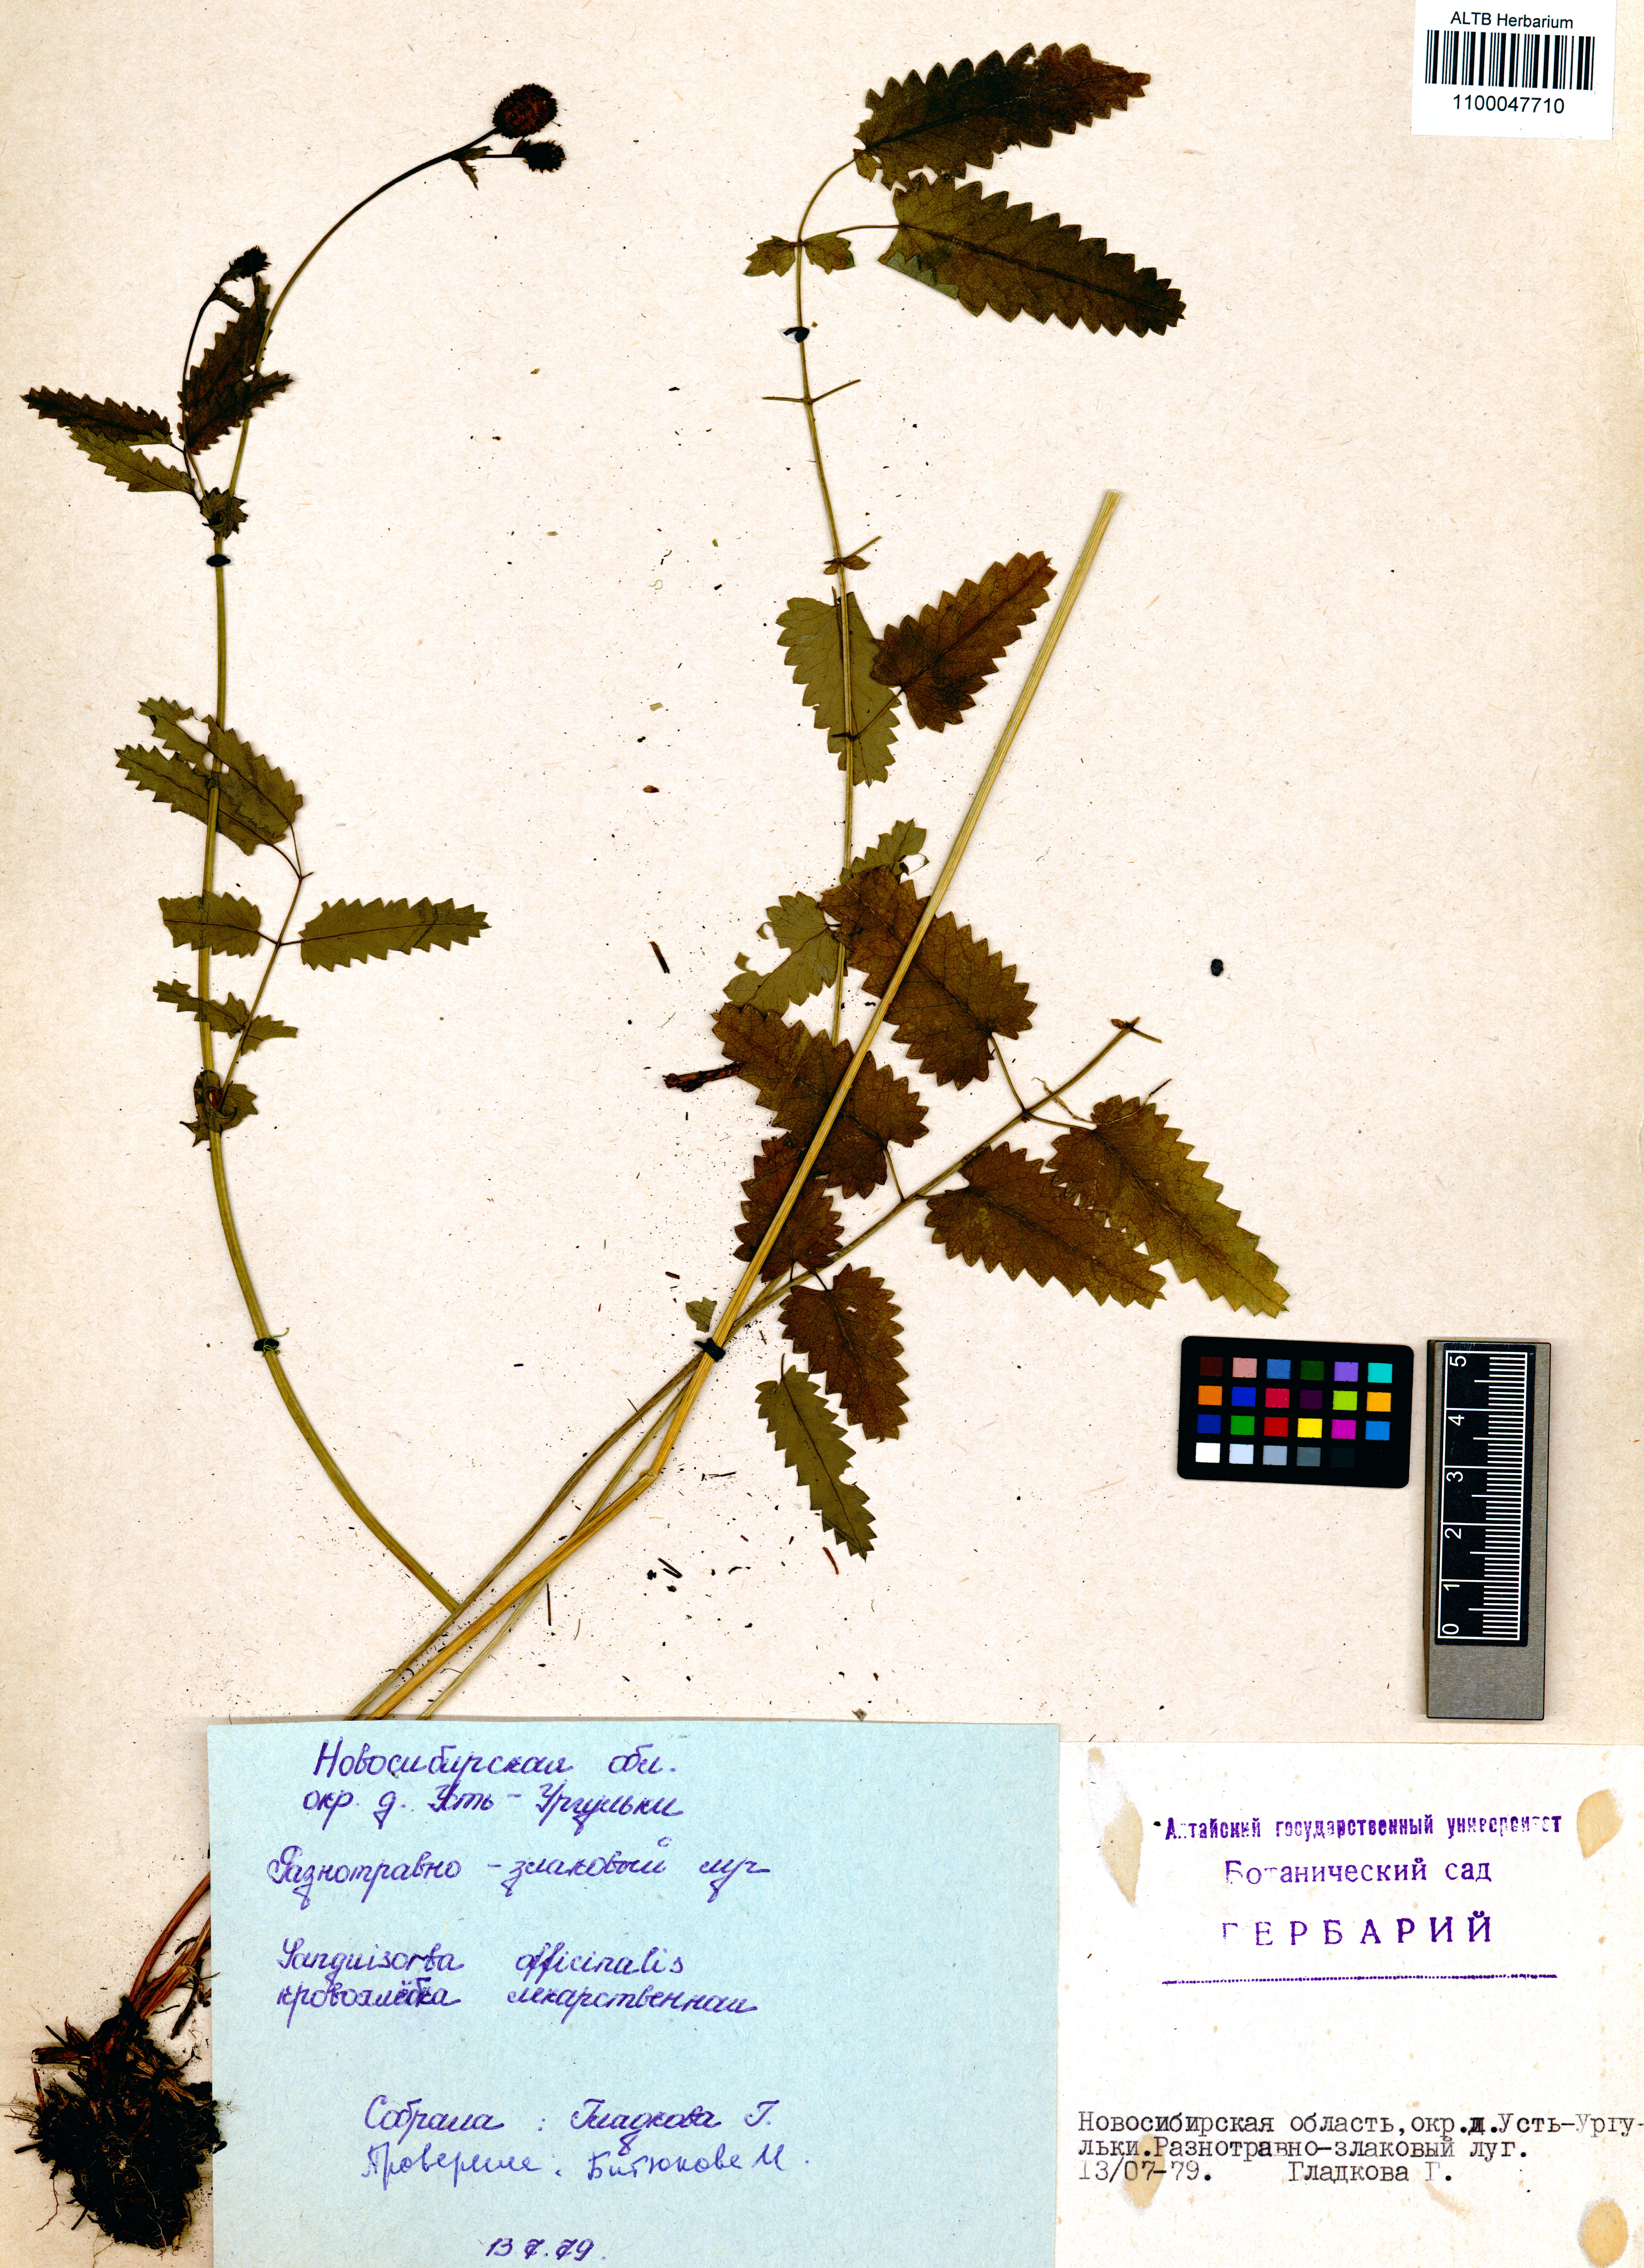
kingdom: Plantae
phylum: Tracheophyta
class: Magnoliopsida
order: Rosales
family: Rosaceae
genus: Sanguisorba
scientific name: Sanguisorba officinalis
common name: Great burnet
